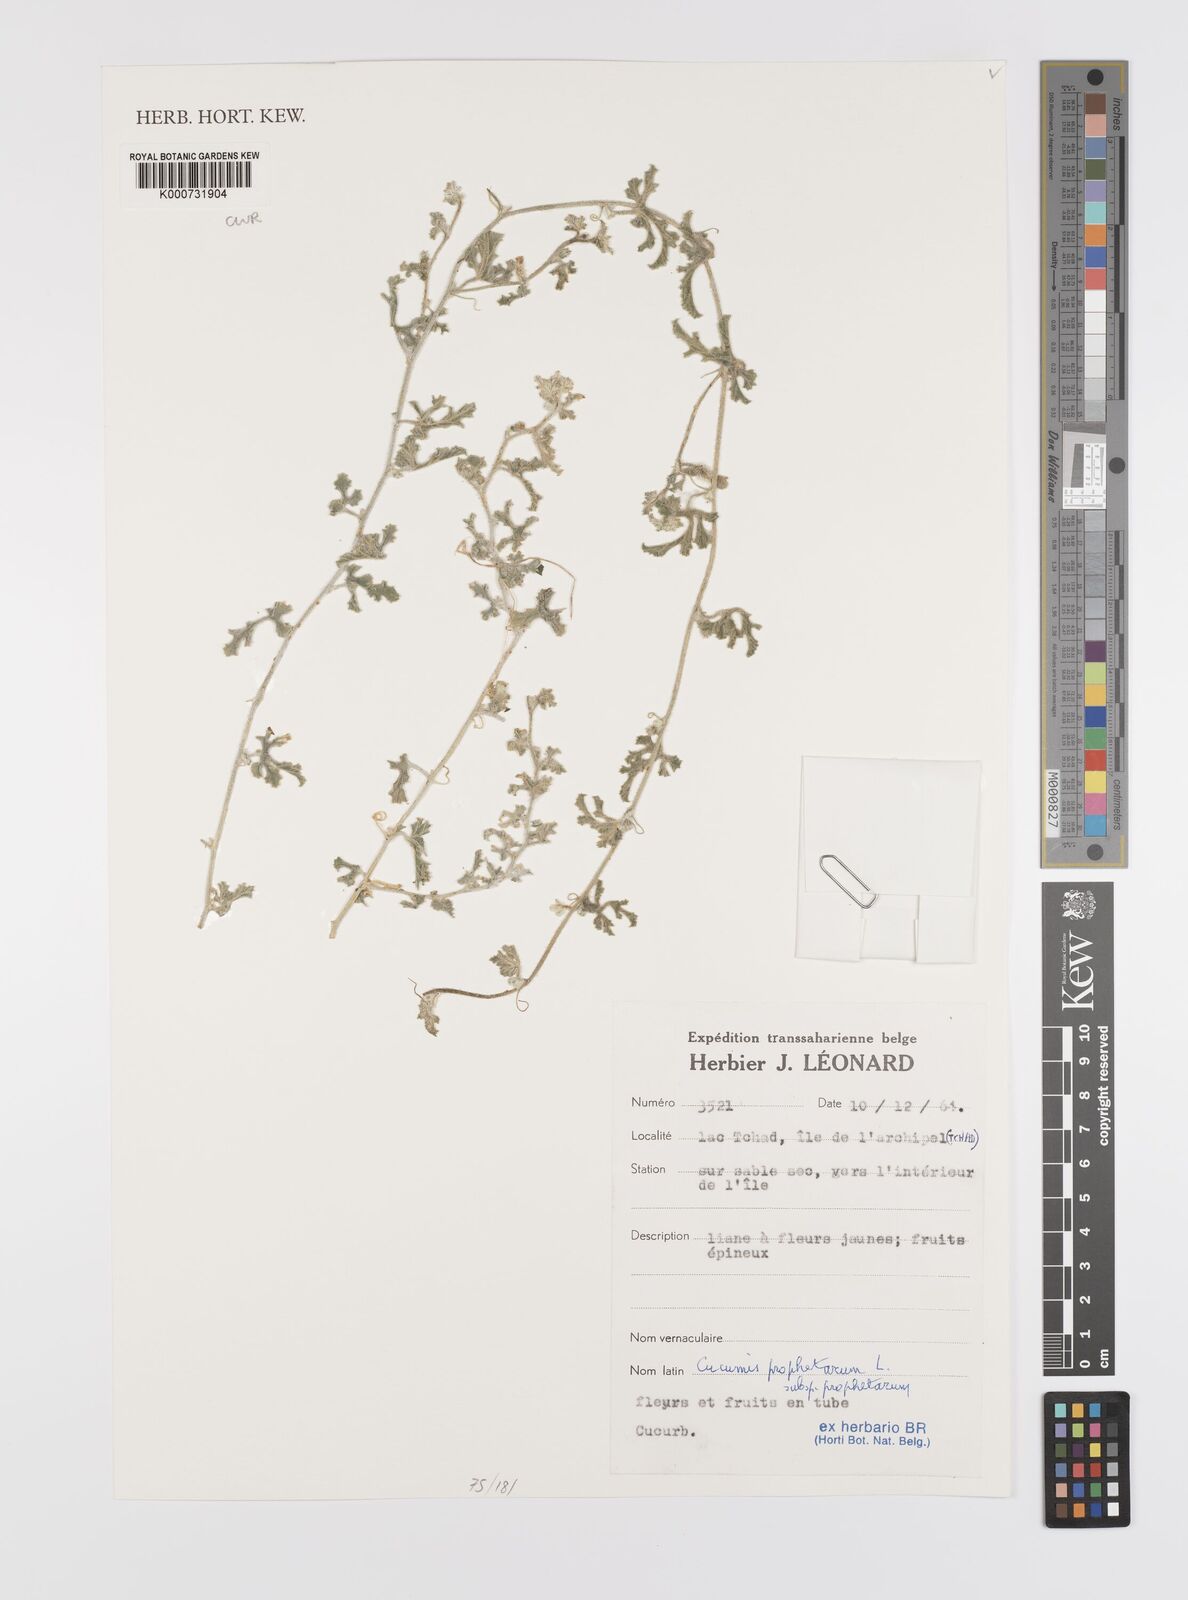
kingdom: Plantae
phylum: Tracheophyta
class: Magnoliopsida
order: Cucurbitales
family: Cucurbitaceae
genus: Cucumis
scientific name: Cucumis prophetarum
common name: Wild cucumber
